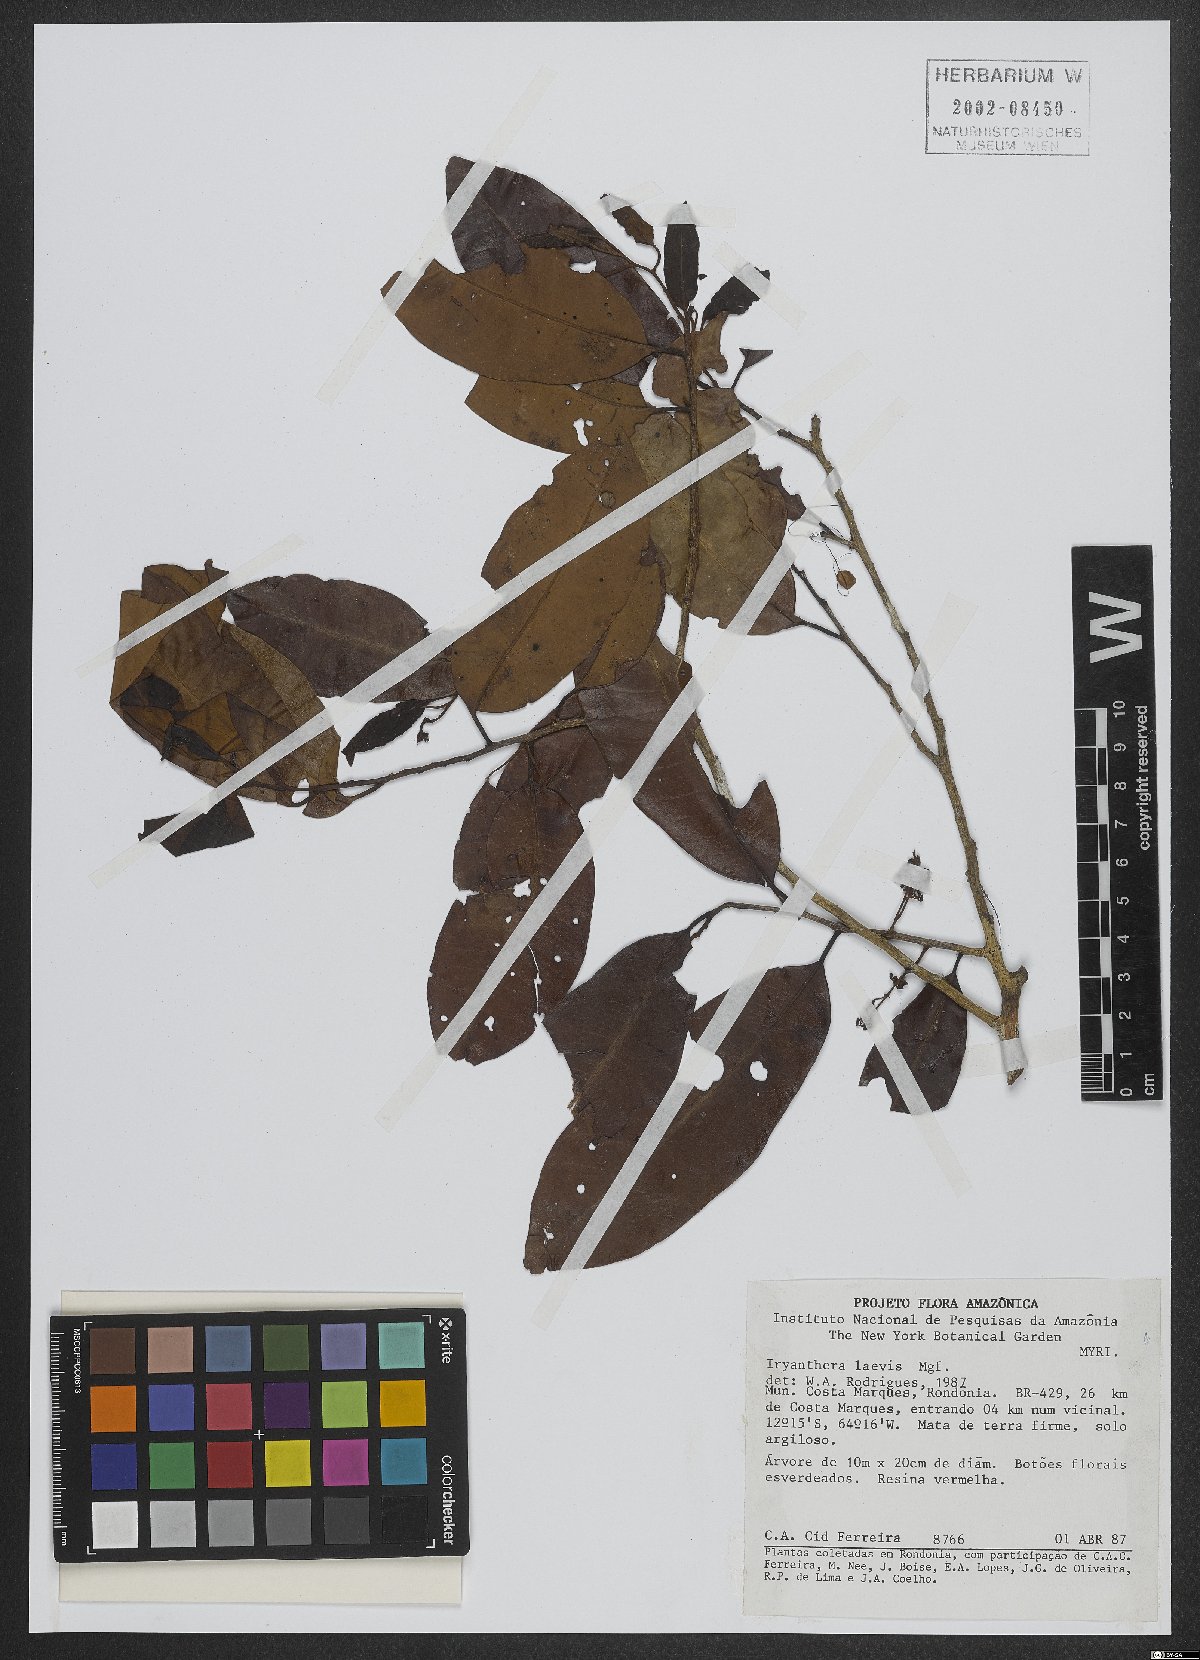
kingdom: Plantae
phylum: Tracheophyta
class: Magnoliopsida
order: Magnoliales
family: Myristicaceae
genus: Iryanthera
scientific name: Iryanthera laevis
